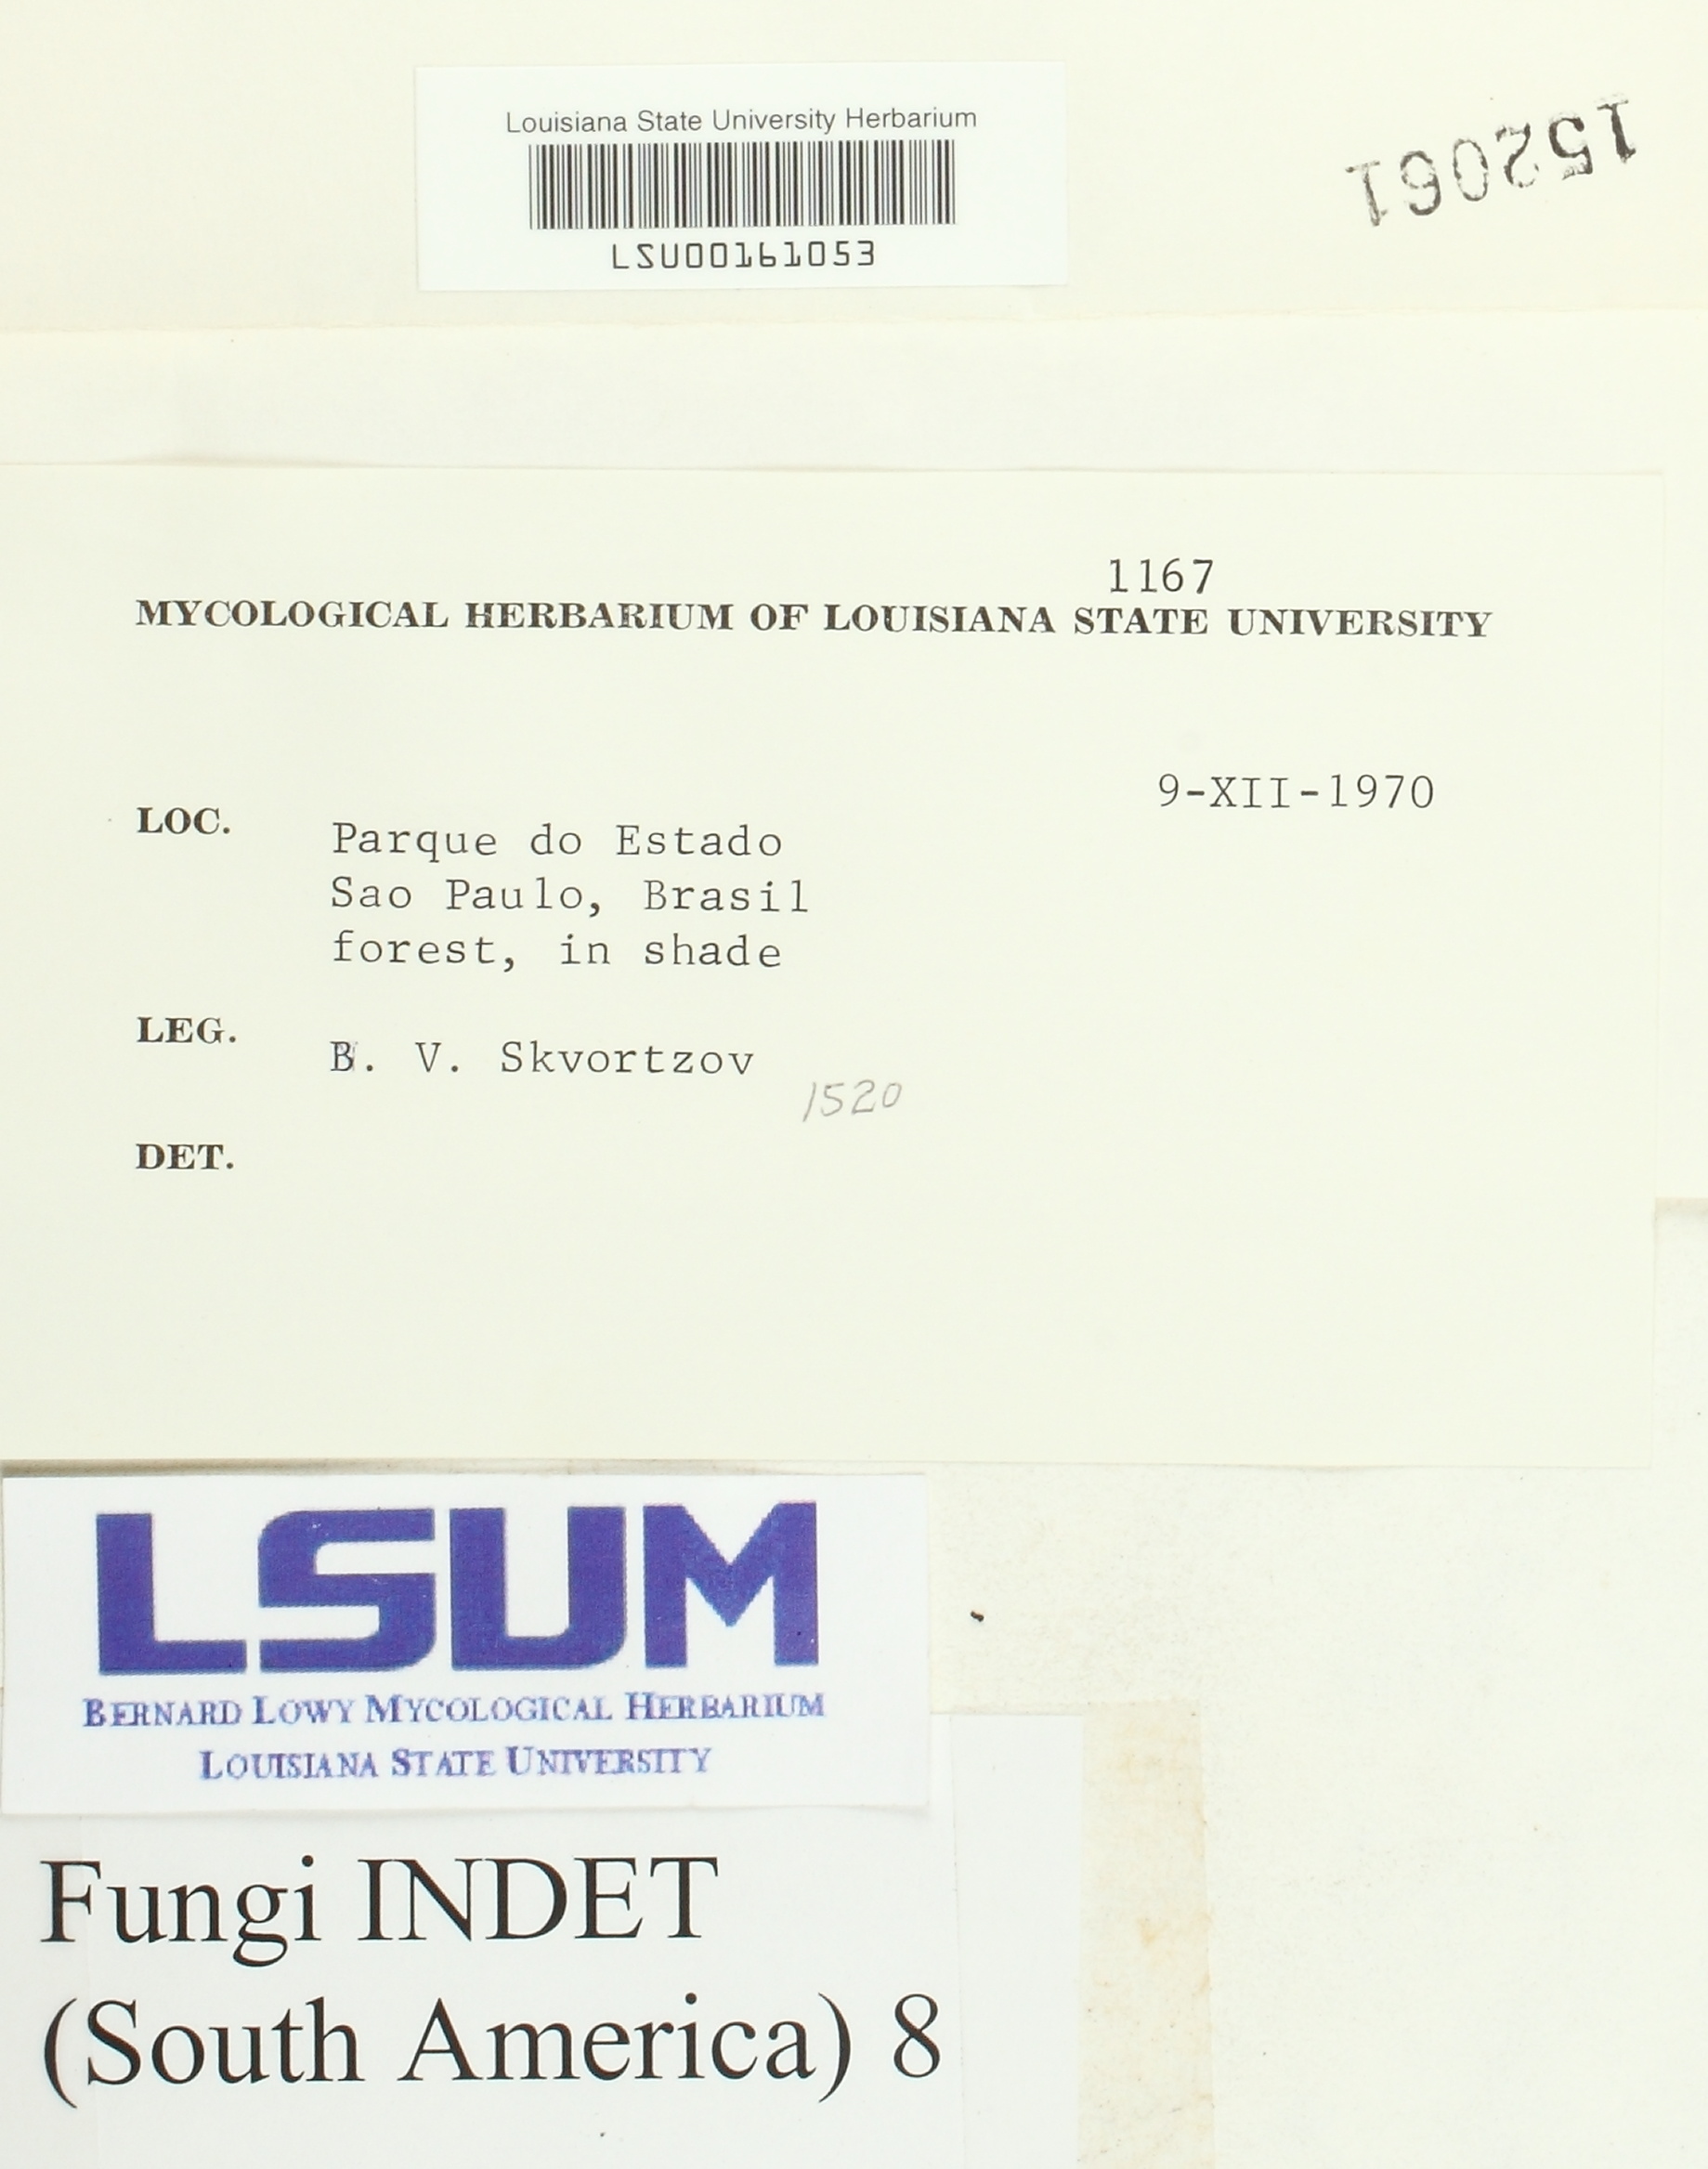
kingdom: Fungi
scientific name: Fungi
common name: Fungi
